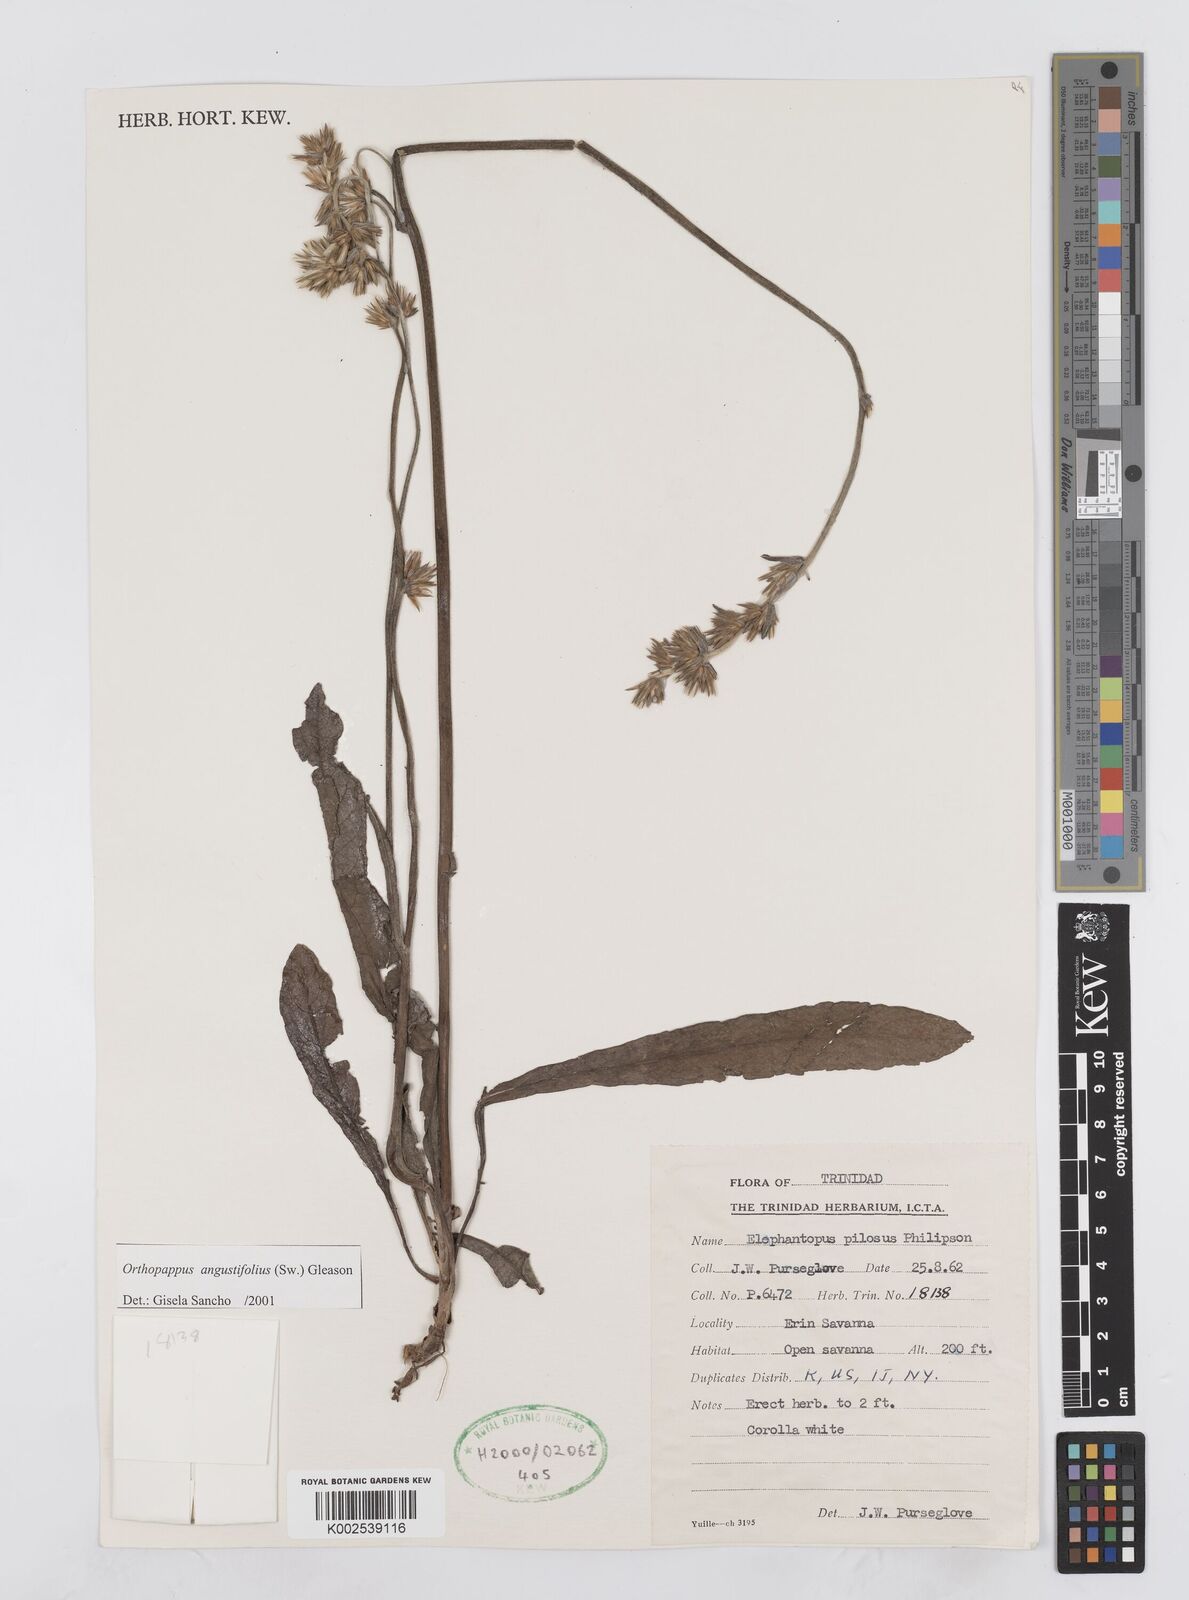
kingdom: Plantae
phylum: Tracheophyta
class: Magnoliopsida
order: Asterales
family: Asteraceae
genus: Orthopappus
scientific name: Orthopappus angustifolius
